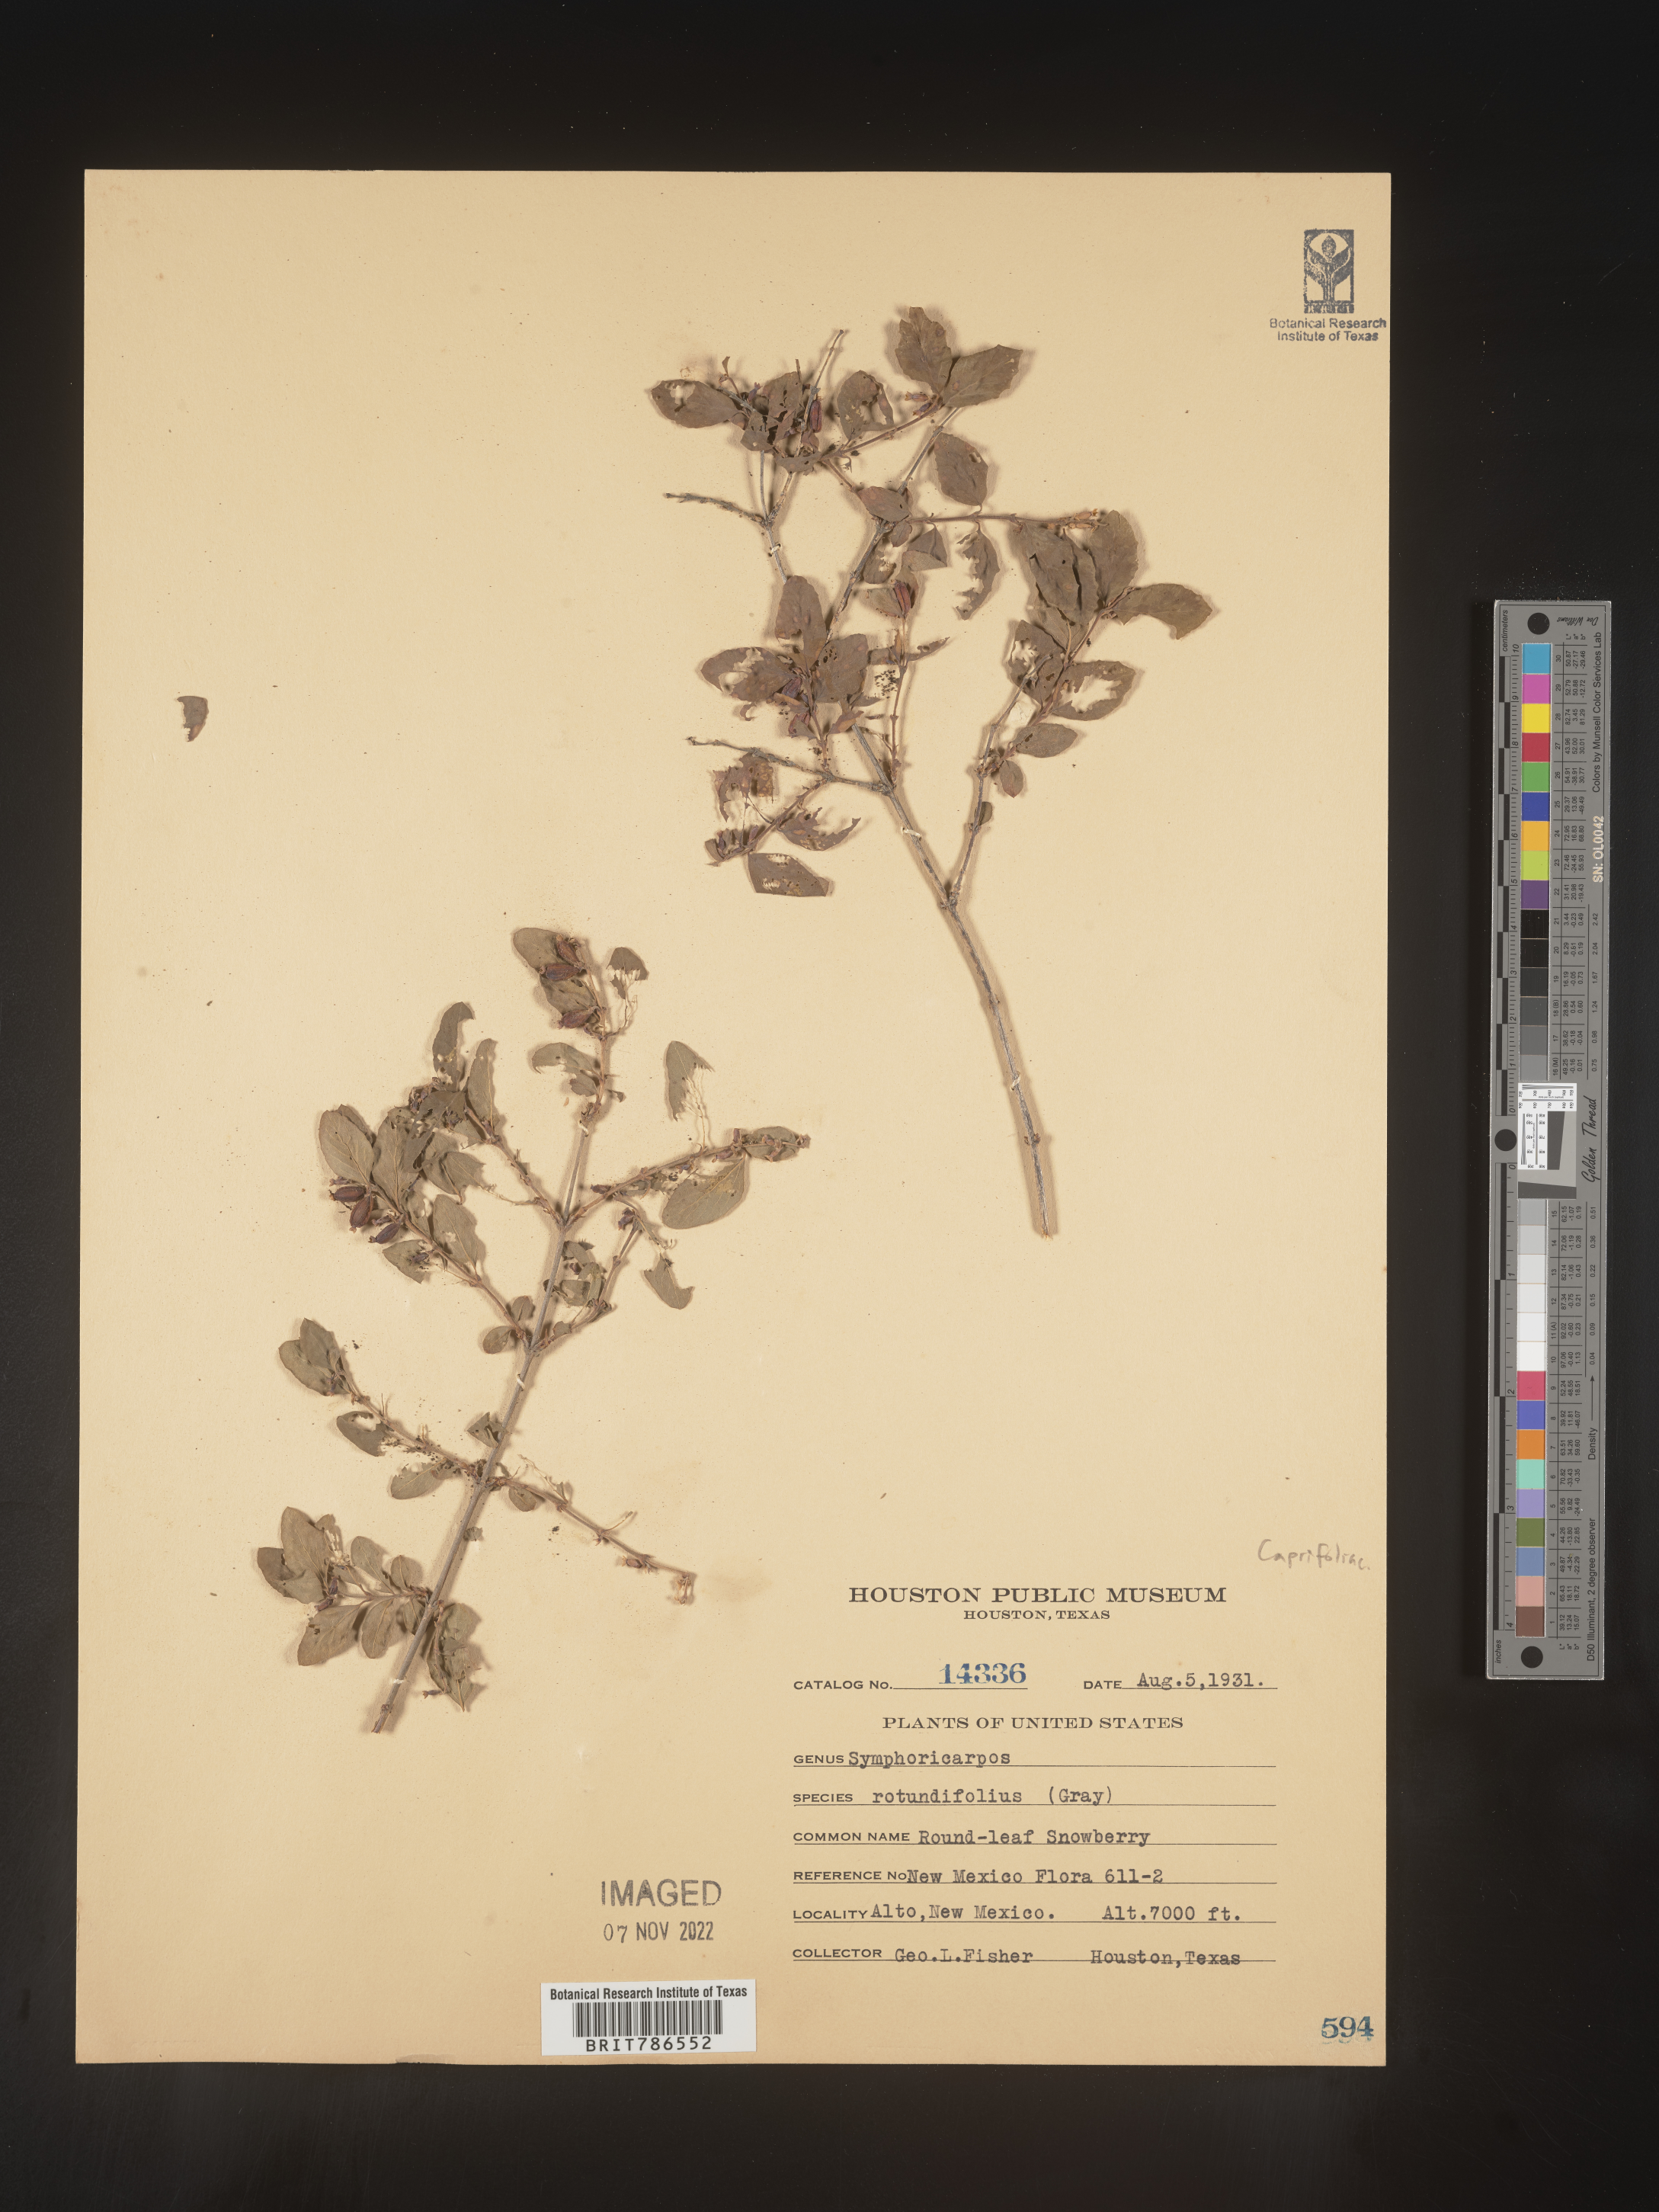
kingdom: Plantae
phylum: Tracheophyta
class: Magnoliopsida
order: Dipsacales
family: Caprifoliaceae
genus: Symphoricarpos
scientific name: Symphoricarpos
